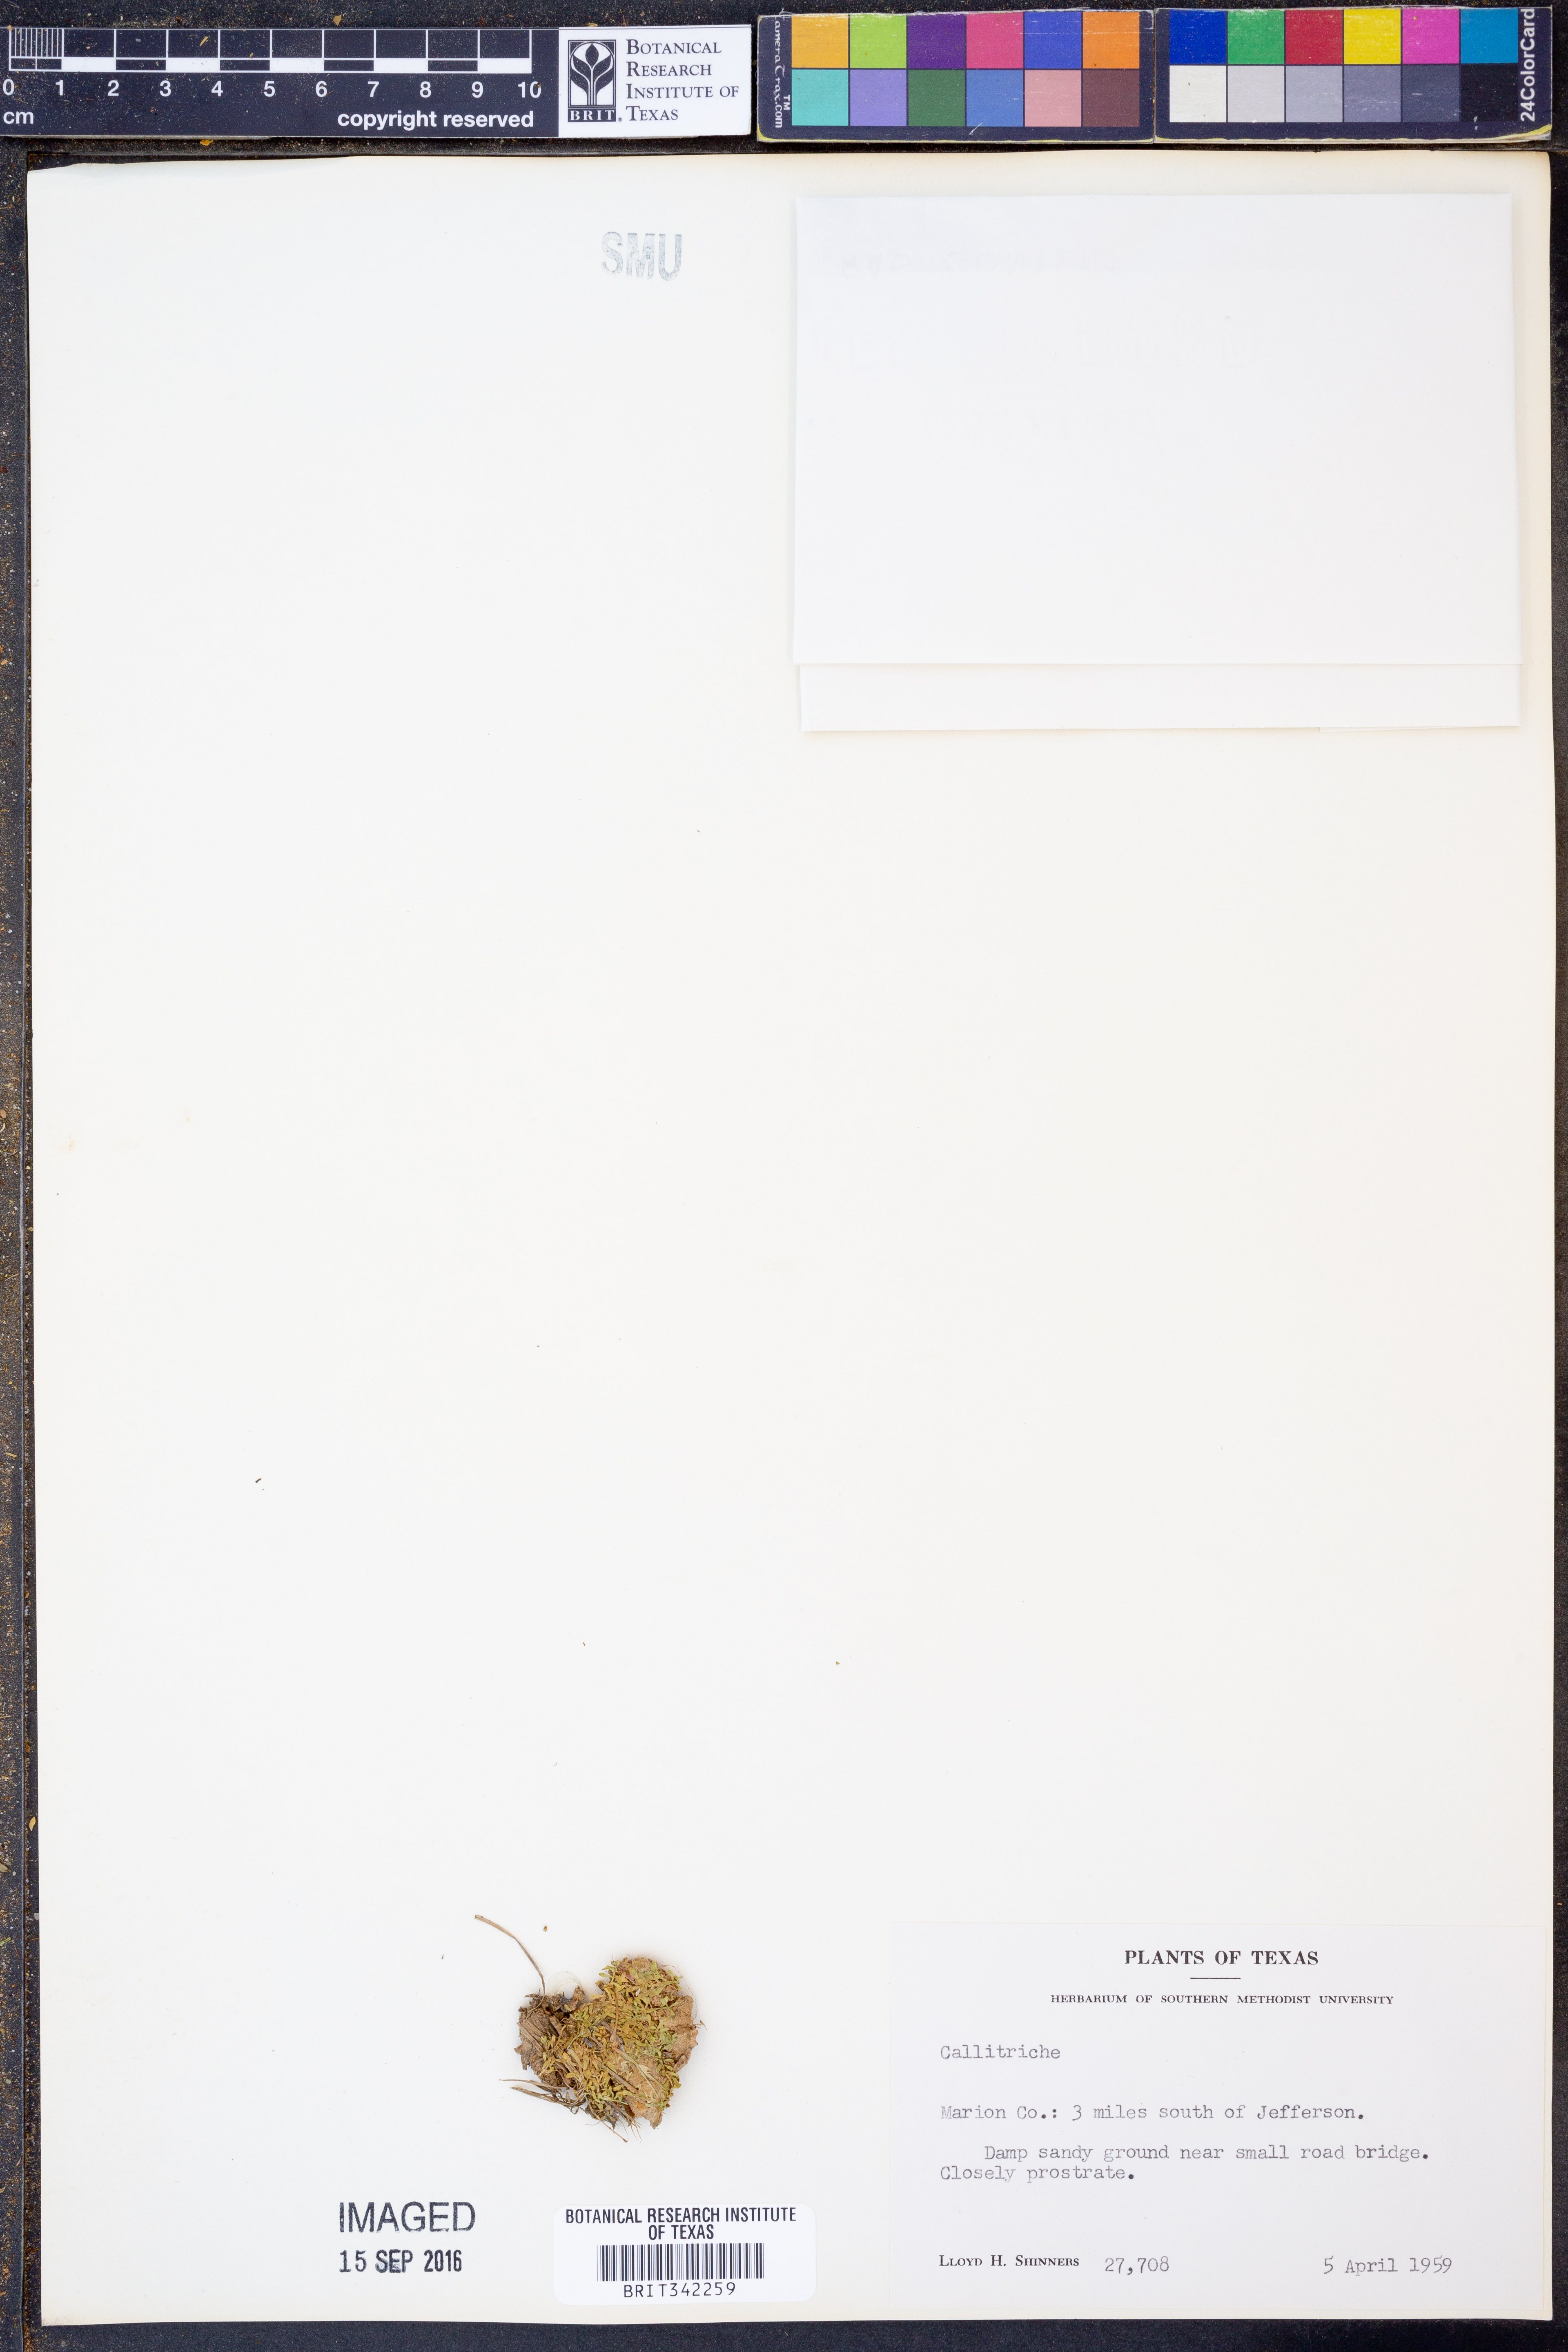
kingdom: Plantae
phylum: Tracheophyta
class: Magnoliopsida
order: Lamiales
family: Plantaginaceae
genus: Callitriche
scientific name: Callitriche
